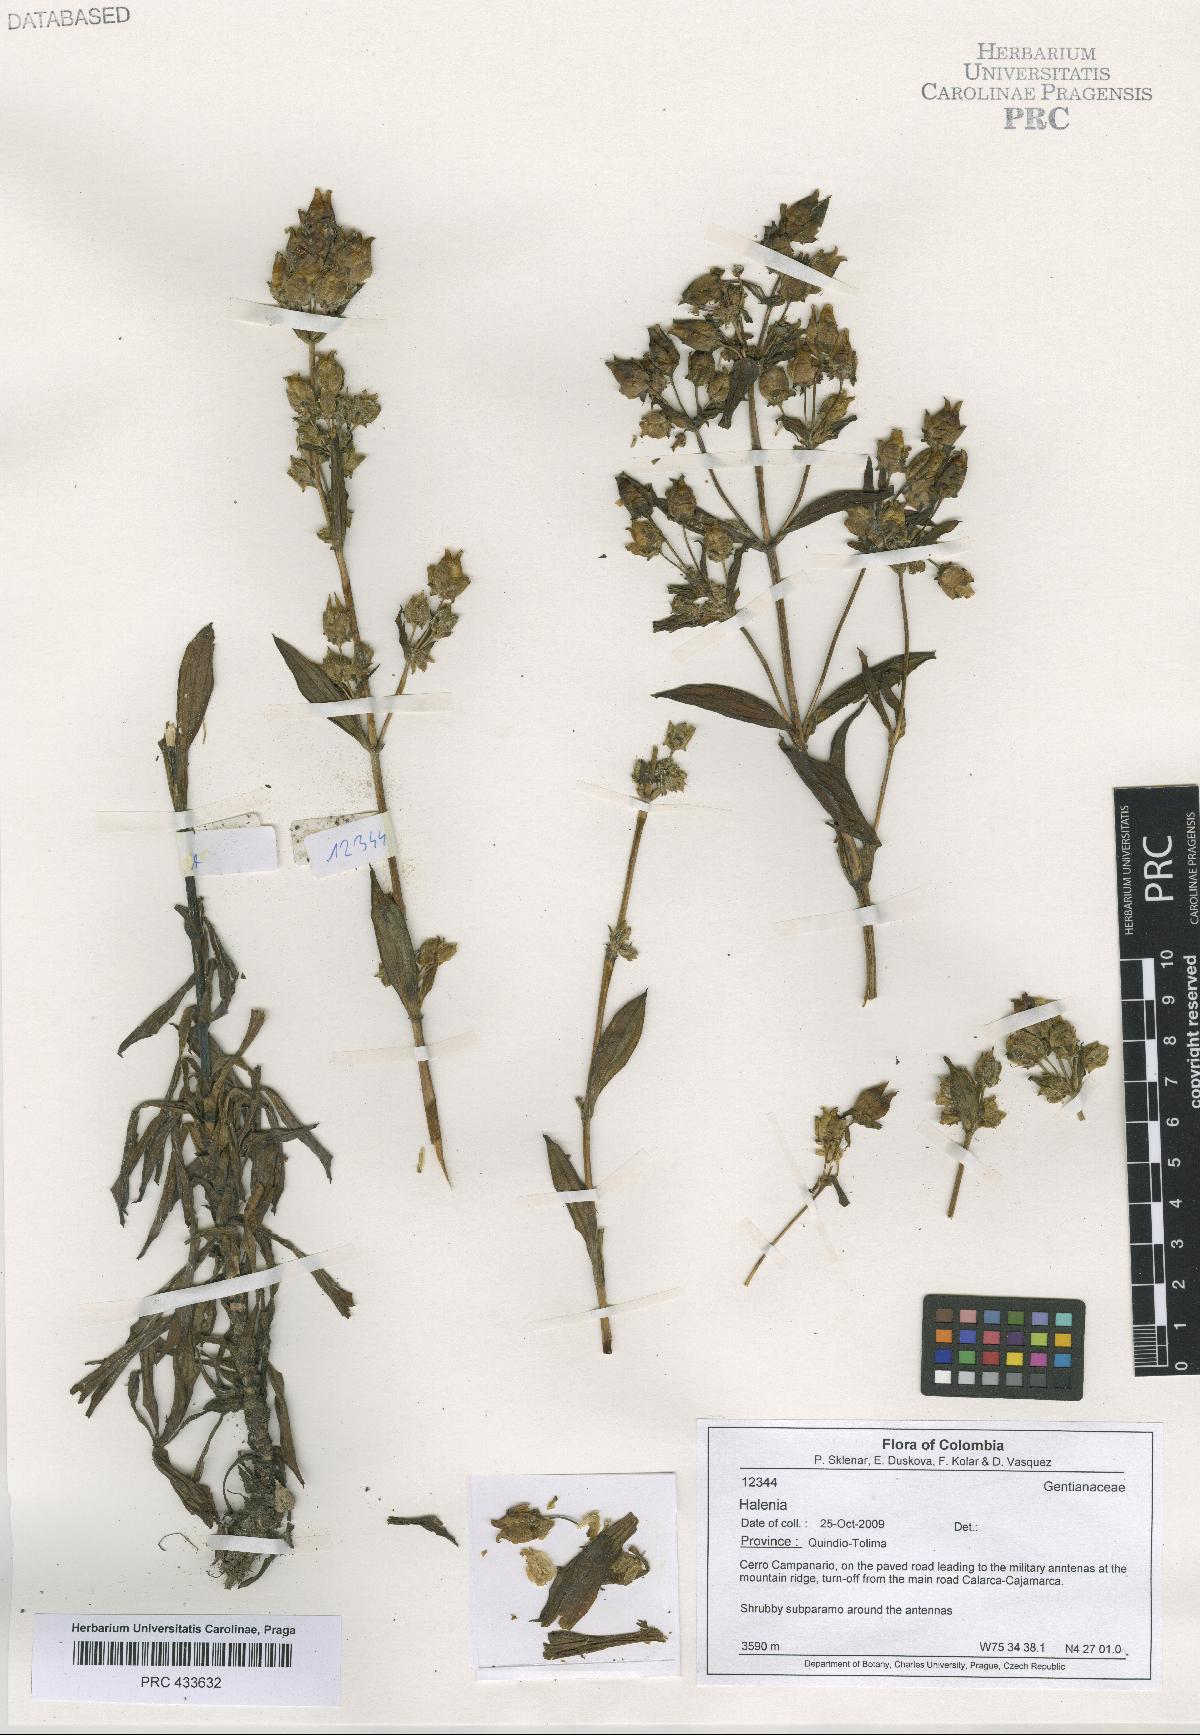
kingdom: Plantae
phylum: Tracheophyta
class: Magnoliopsida
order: Gentianales
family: Gentianaceae
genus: Halenia
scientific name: Halenia
